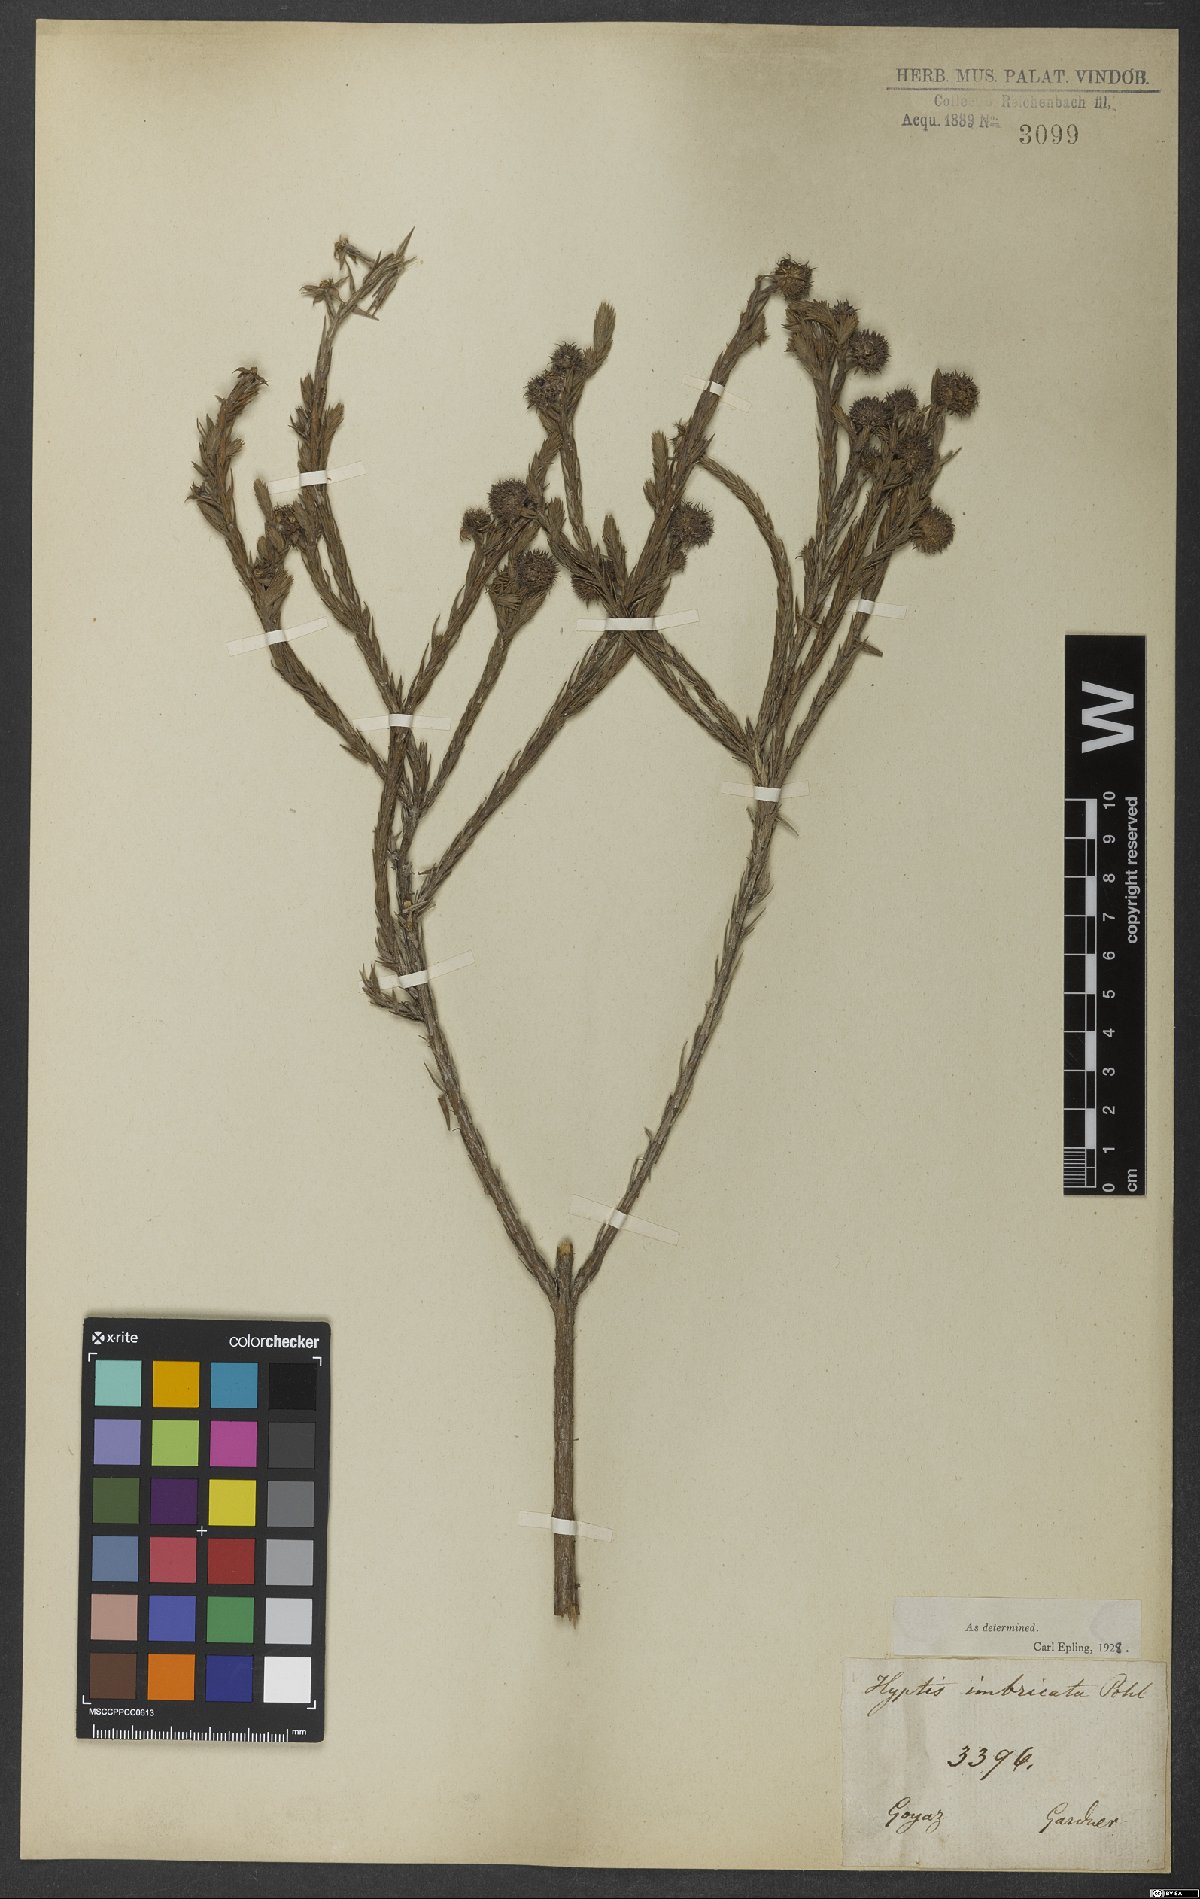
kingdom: Plantae
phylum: Tracheophyta
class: Magnoliopsida
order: Lamiales
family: Lamiaceae
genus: Hyptis
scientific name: Hyptis imbricata
